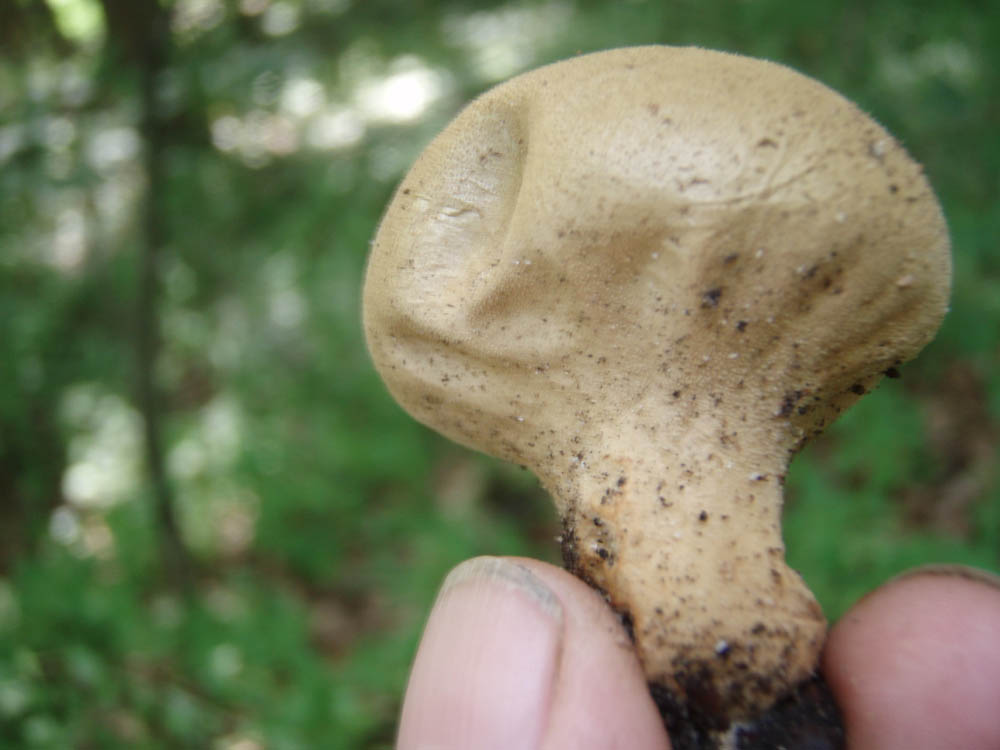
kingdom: Fungi
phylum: Basidiomycota
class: Agaricomycetes
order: Agaricales
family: Lycoperdaceae
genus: Lycoperdon
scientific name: Lycoperdon molle
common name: skov-støvbold
